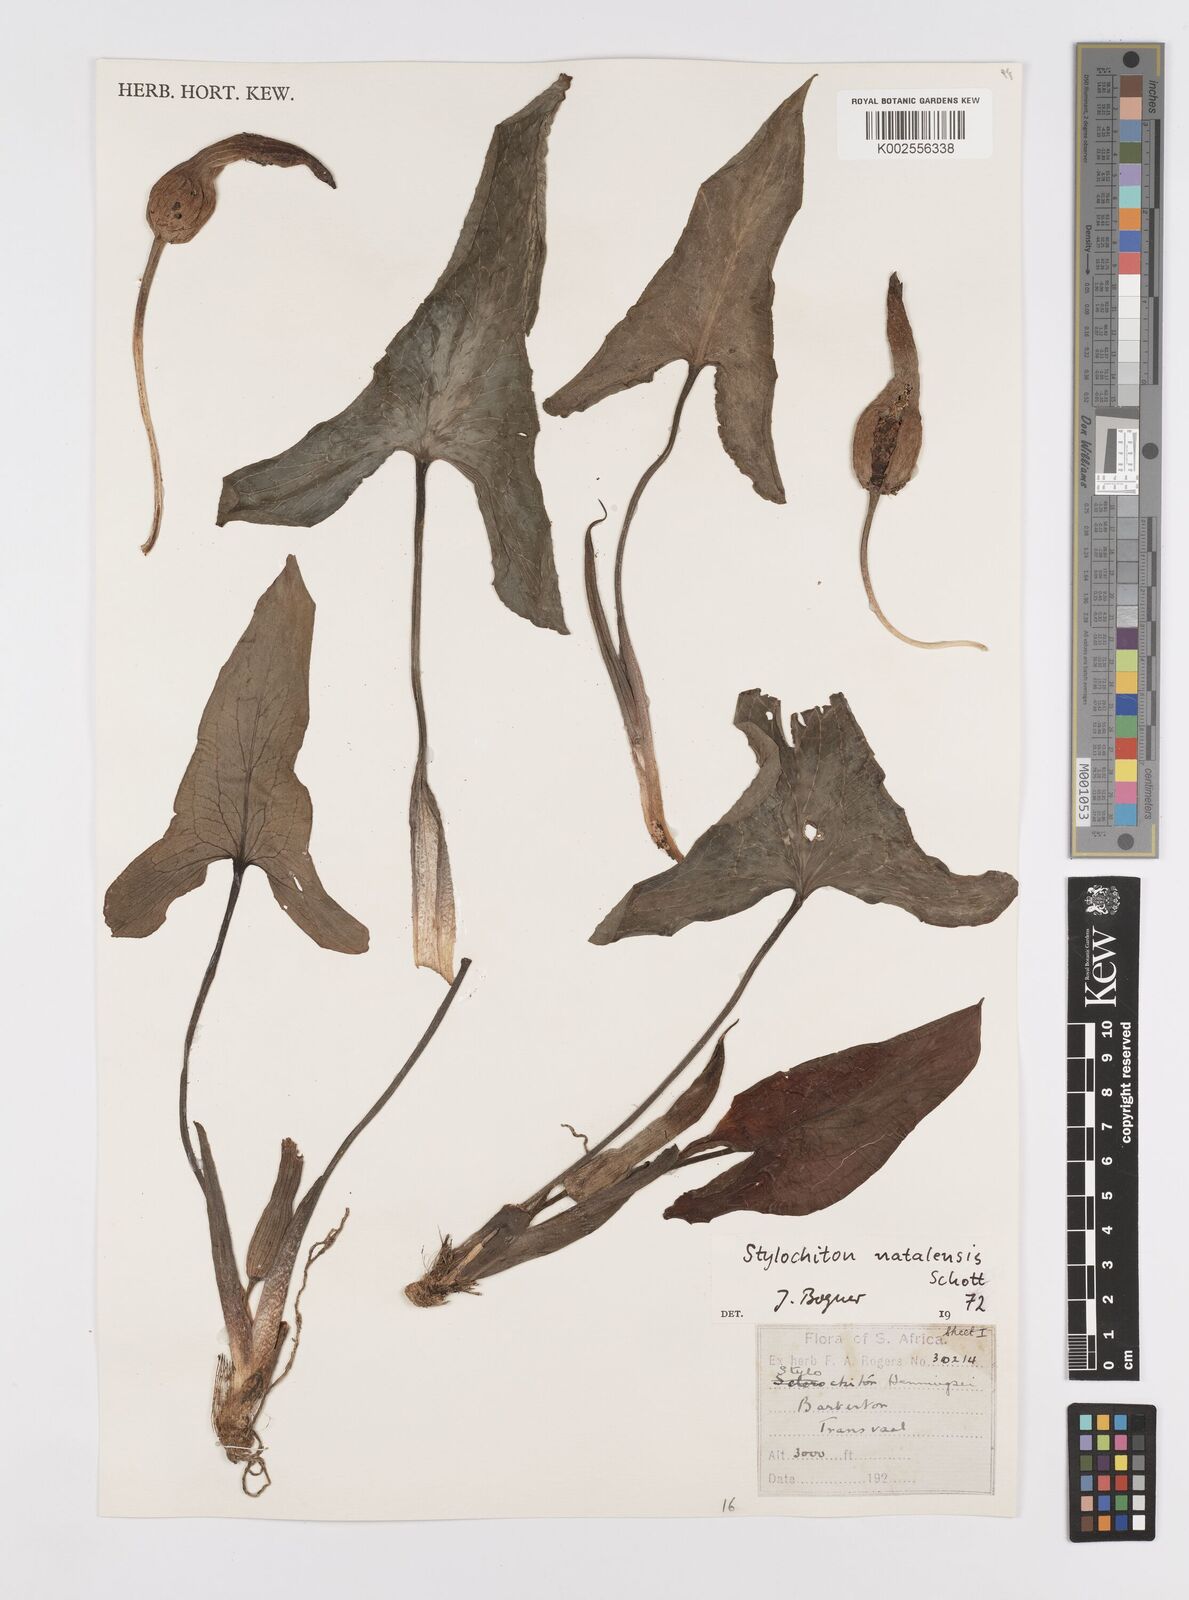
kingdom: Plantae
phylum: Tracheophyta
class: Liliopsida
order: Alismatales
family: Araceae
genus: Stylochaeton
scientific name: Stylochaeton natalense
